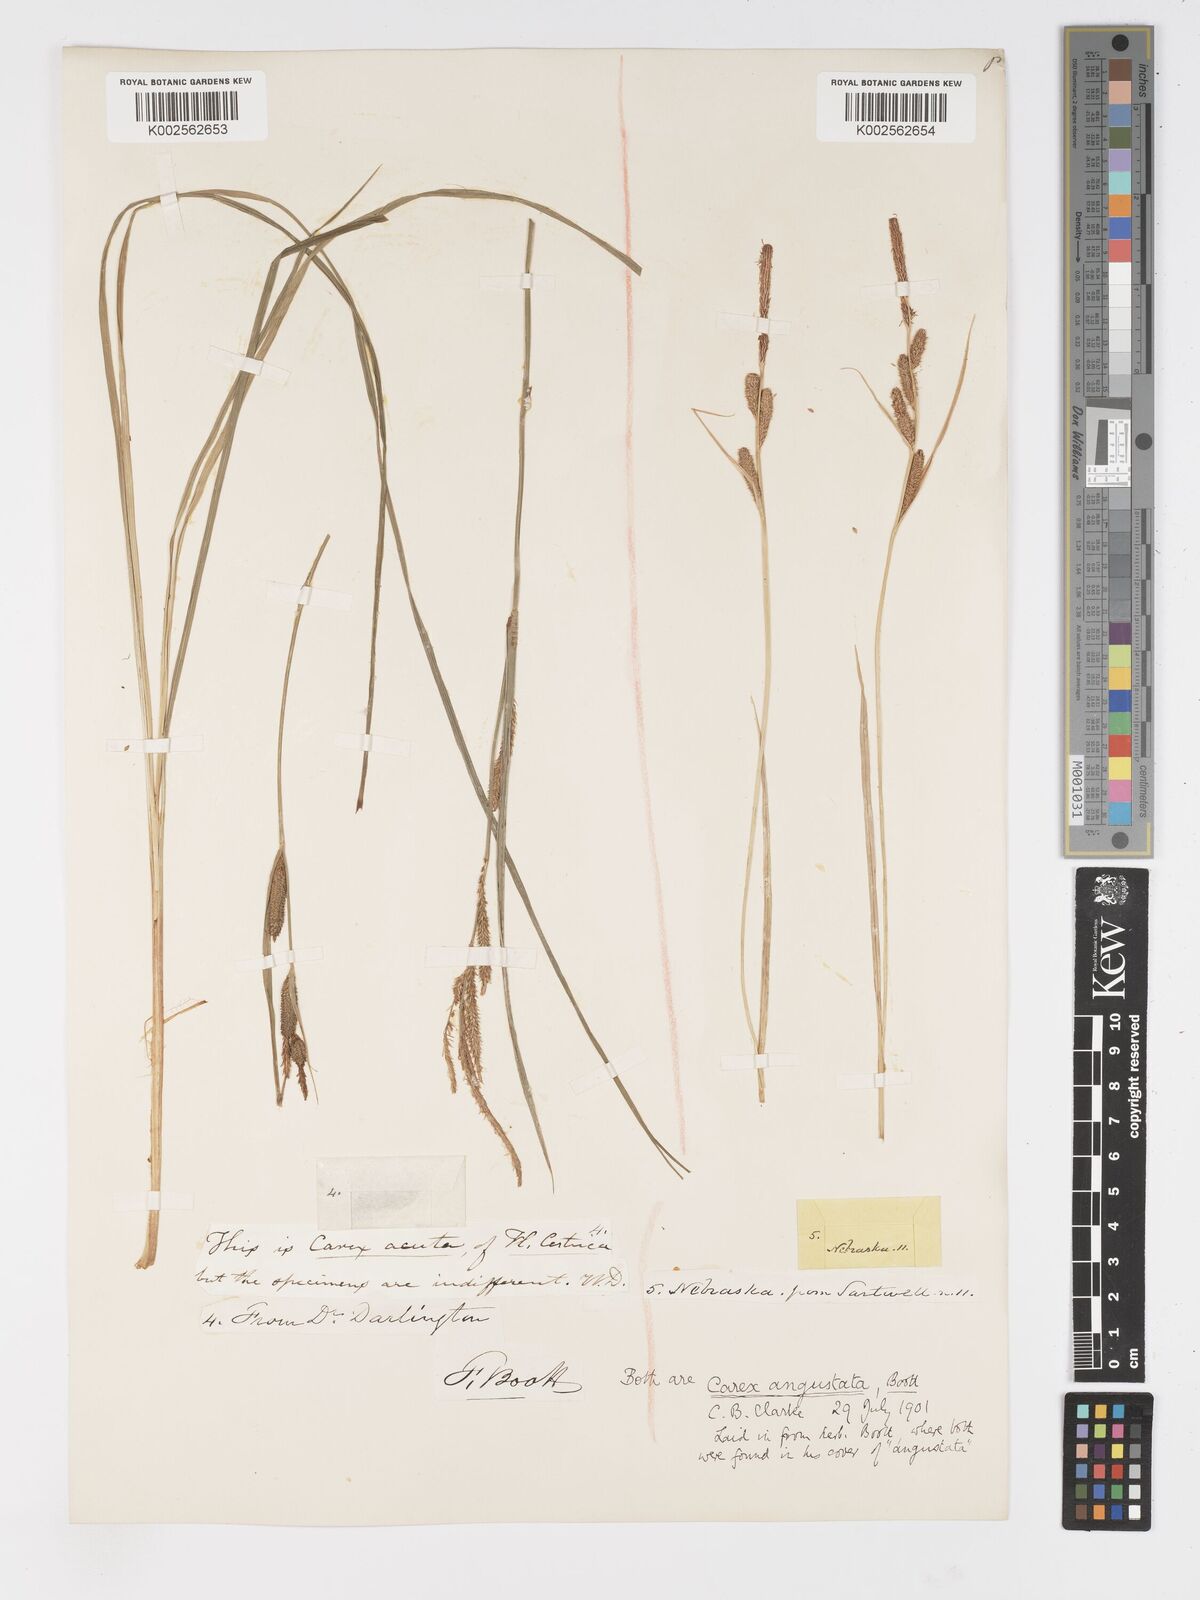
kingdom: Plantae
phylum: Tracheophyta
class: Liliopsida
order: Poales
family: Cyperaceae
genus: Carex
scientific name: Carex stricta
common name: Hummock sedge
